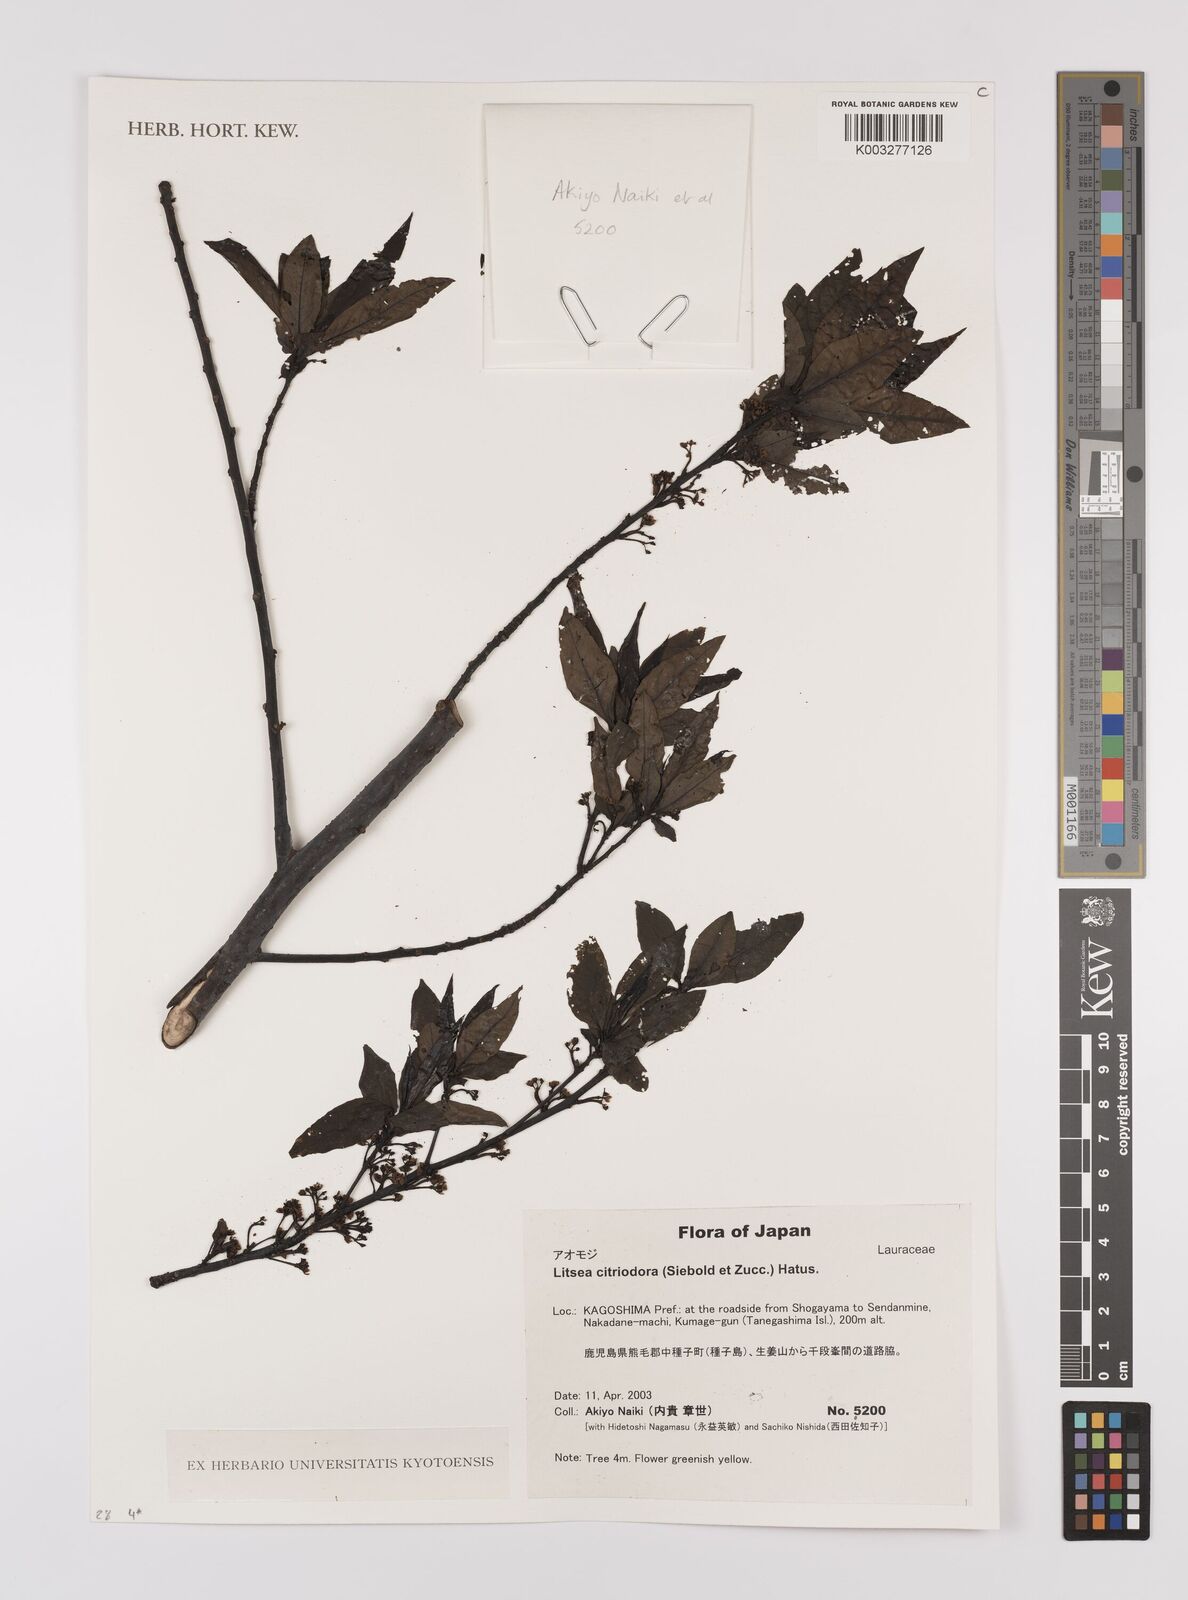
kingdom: Plantae
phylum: Tracheophyta
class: Magnoliopsida
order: Laurales
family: Lauraceae
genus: Lindera
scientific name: Lindera citriodora
